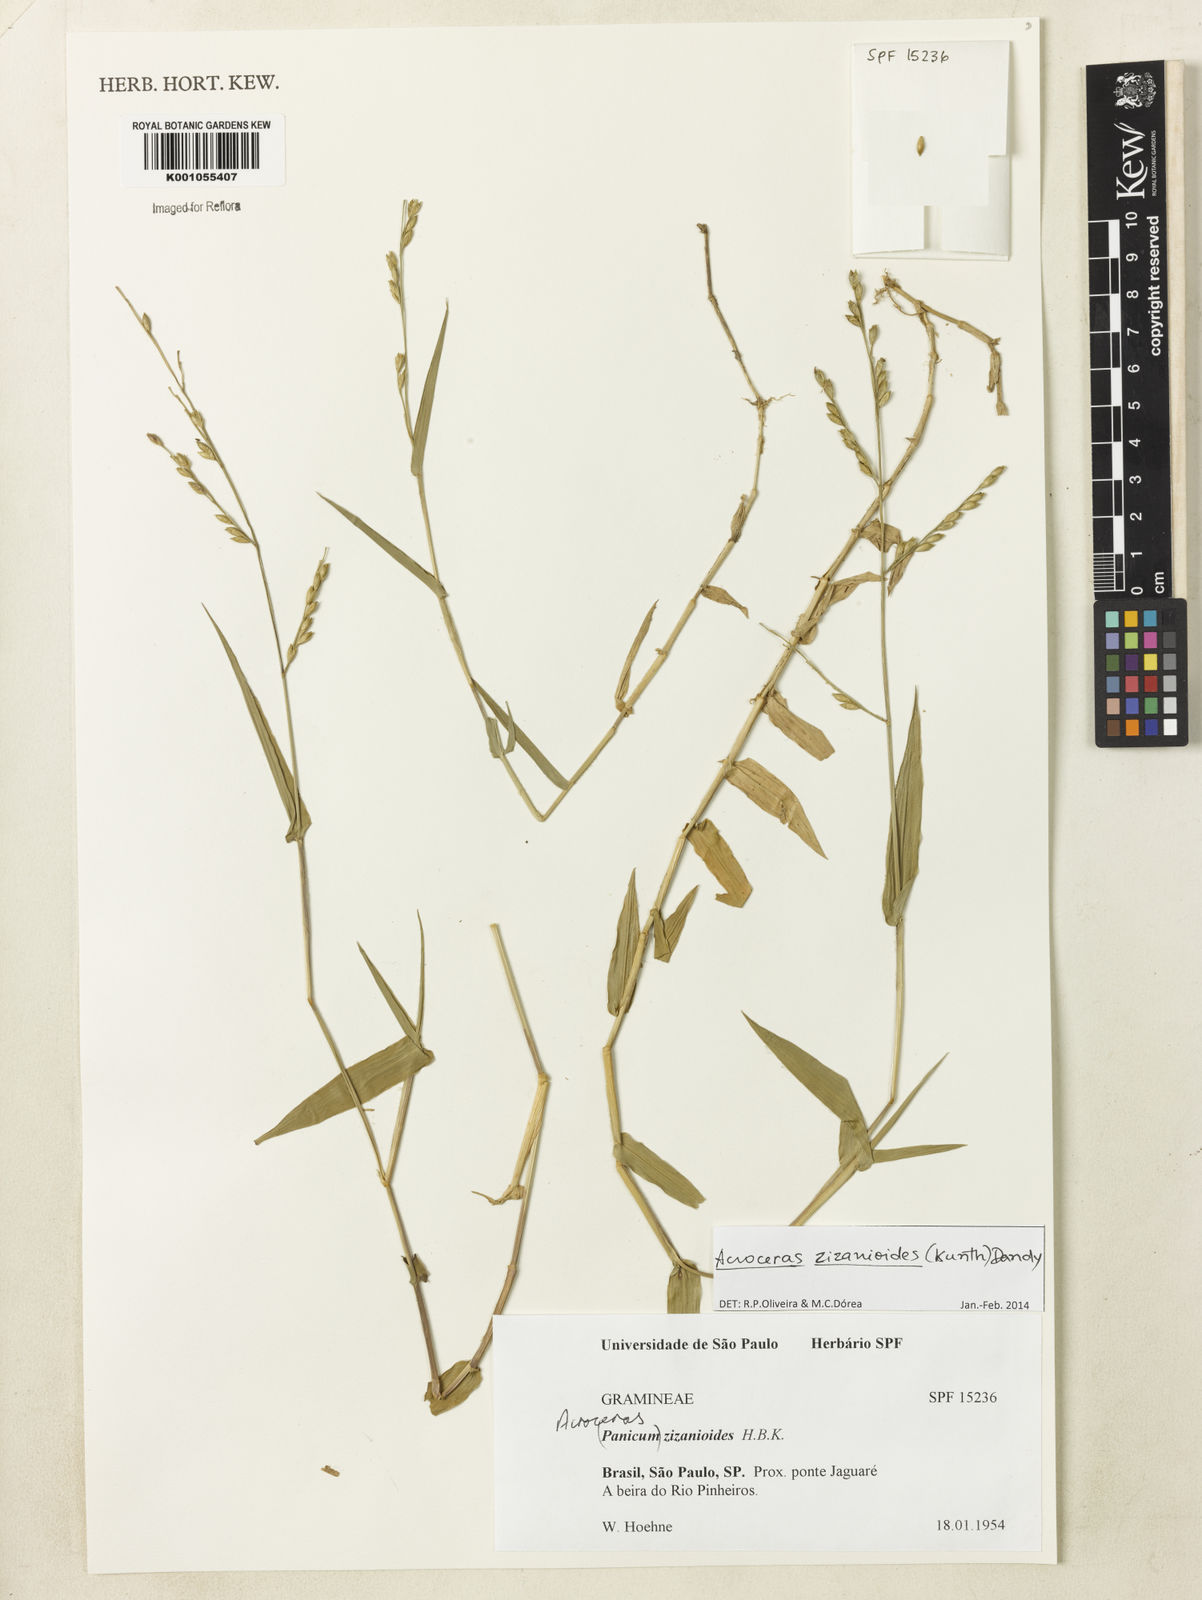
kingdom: Plantae
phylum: Tracheophyta
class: Liliopsida
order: Poales
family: Poaceae
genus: Acroceras
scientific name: Acroceras zizanioides
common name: Oat grass
